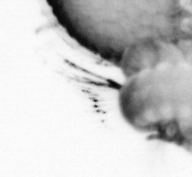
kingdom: Animalia
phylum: Annelida
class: Polychaeta
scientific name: Polychaeta
